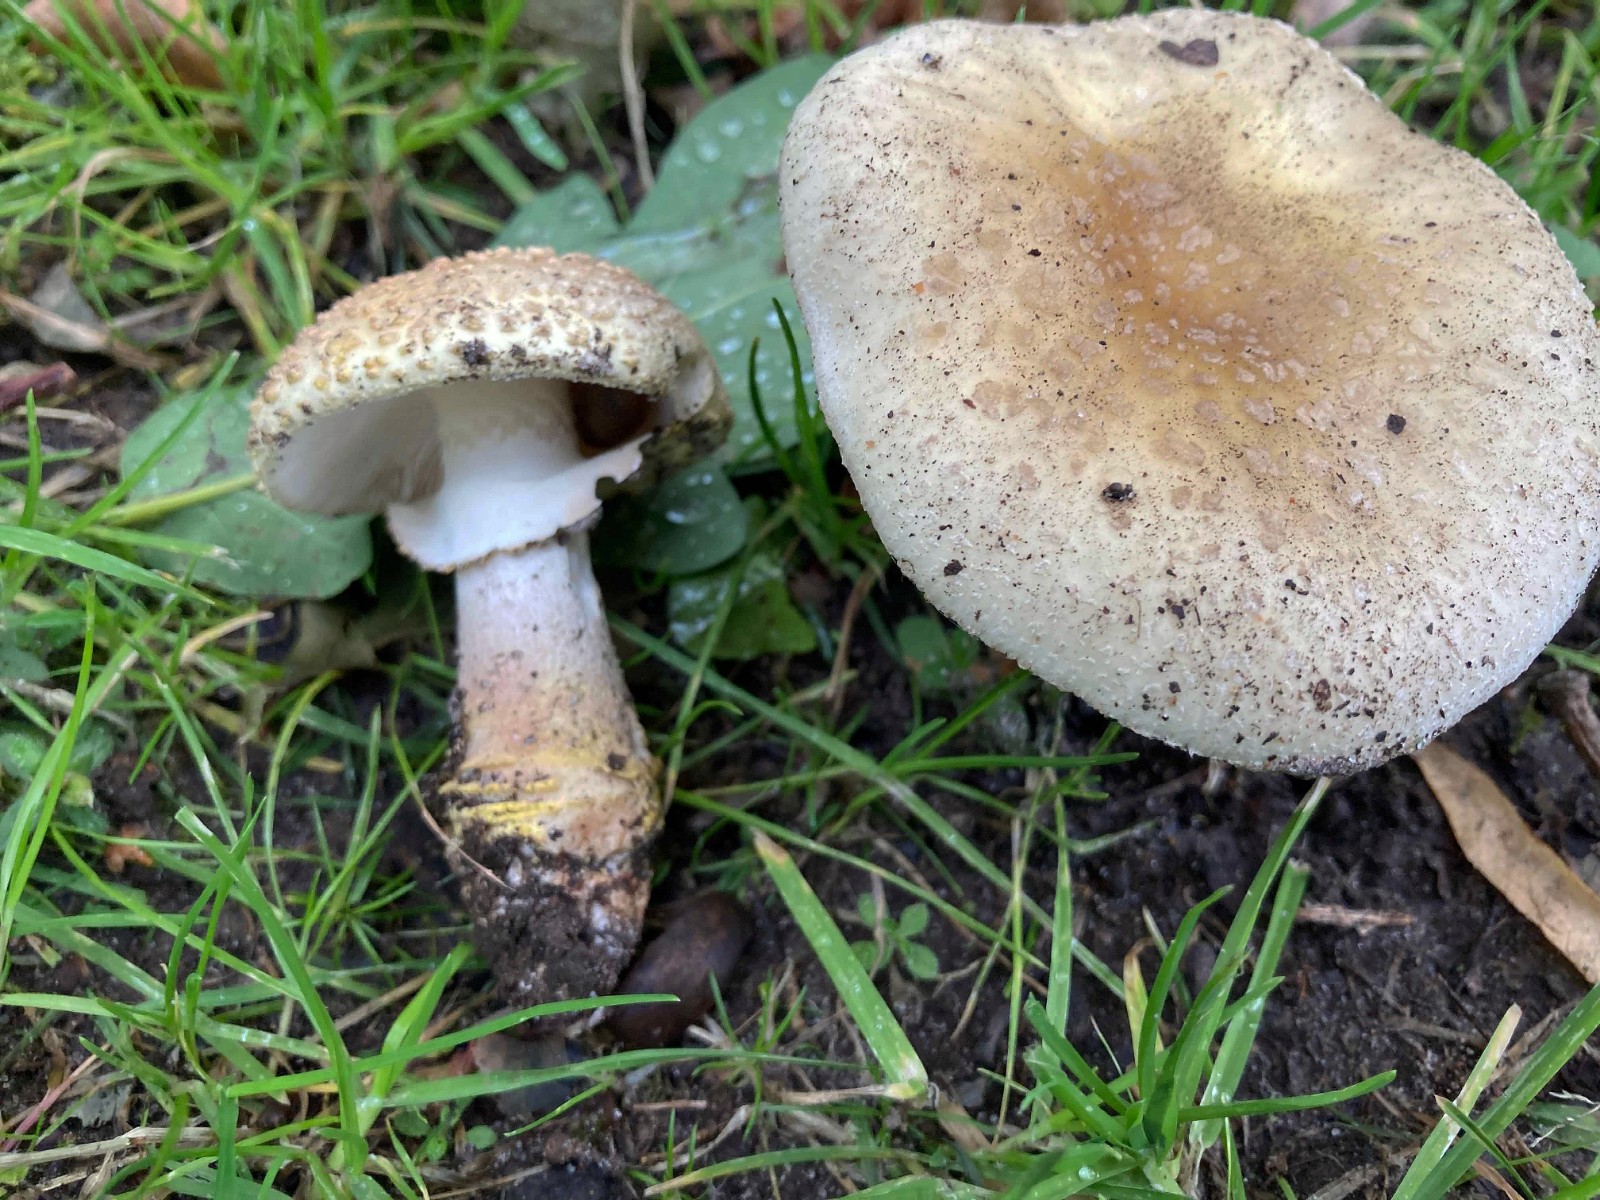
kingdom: Fungi
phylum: Basidiomycota
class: Agaricomycetes
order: Agaricales
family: Amanitaceae
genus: Amanita
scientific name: Amanita franchetii
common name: gulrandet fluesvamp
